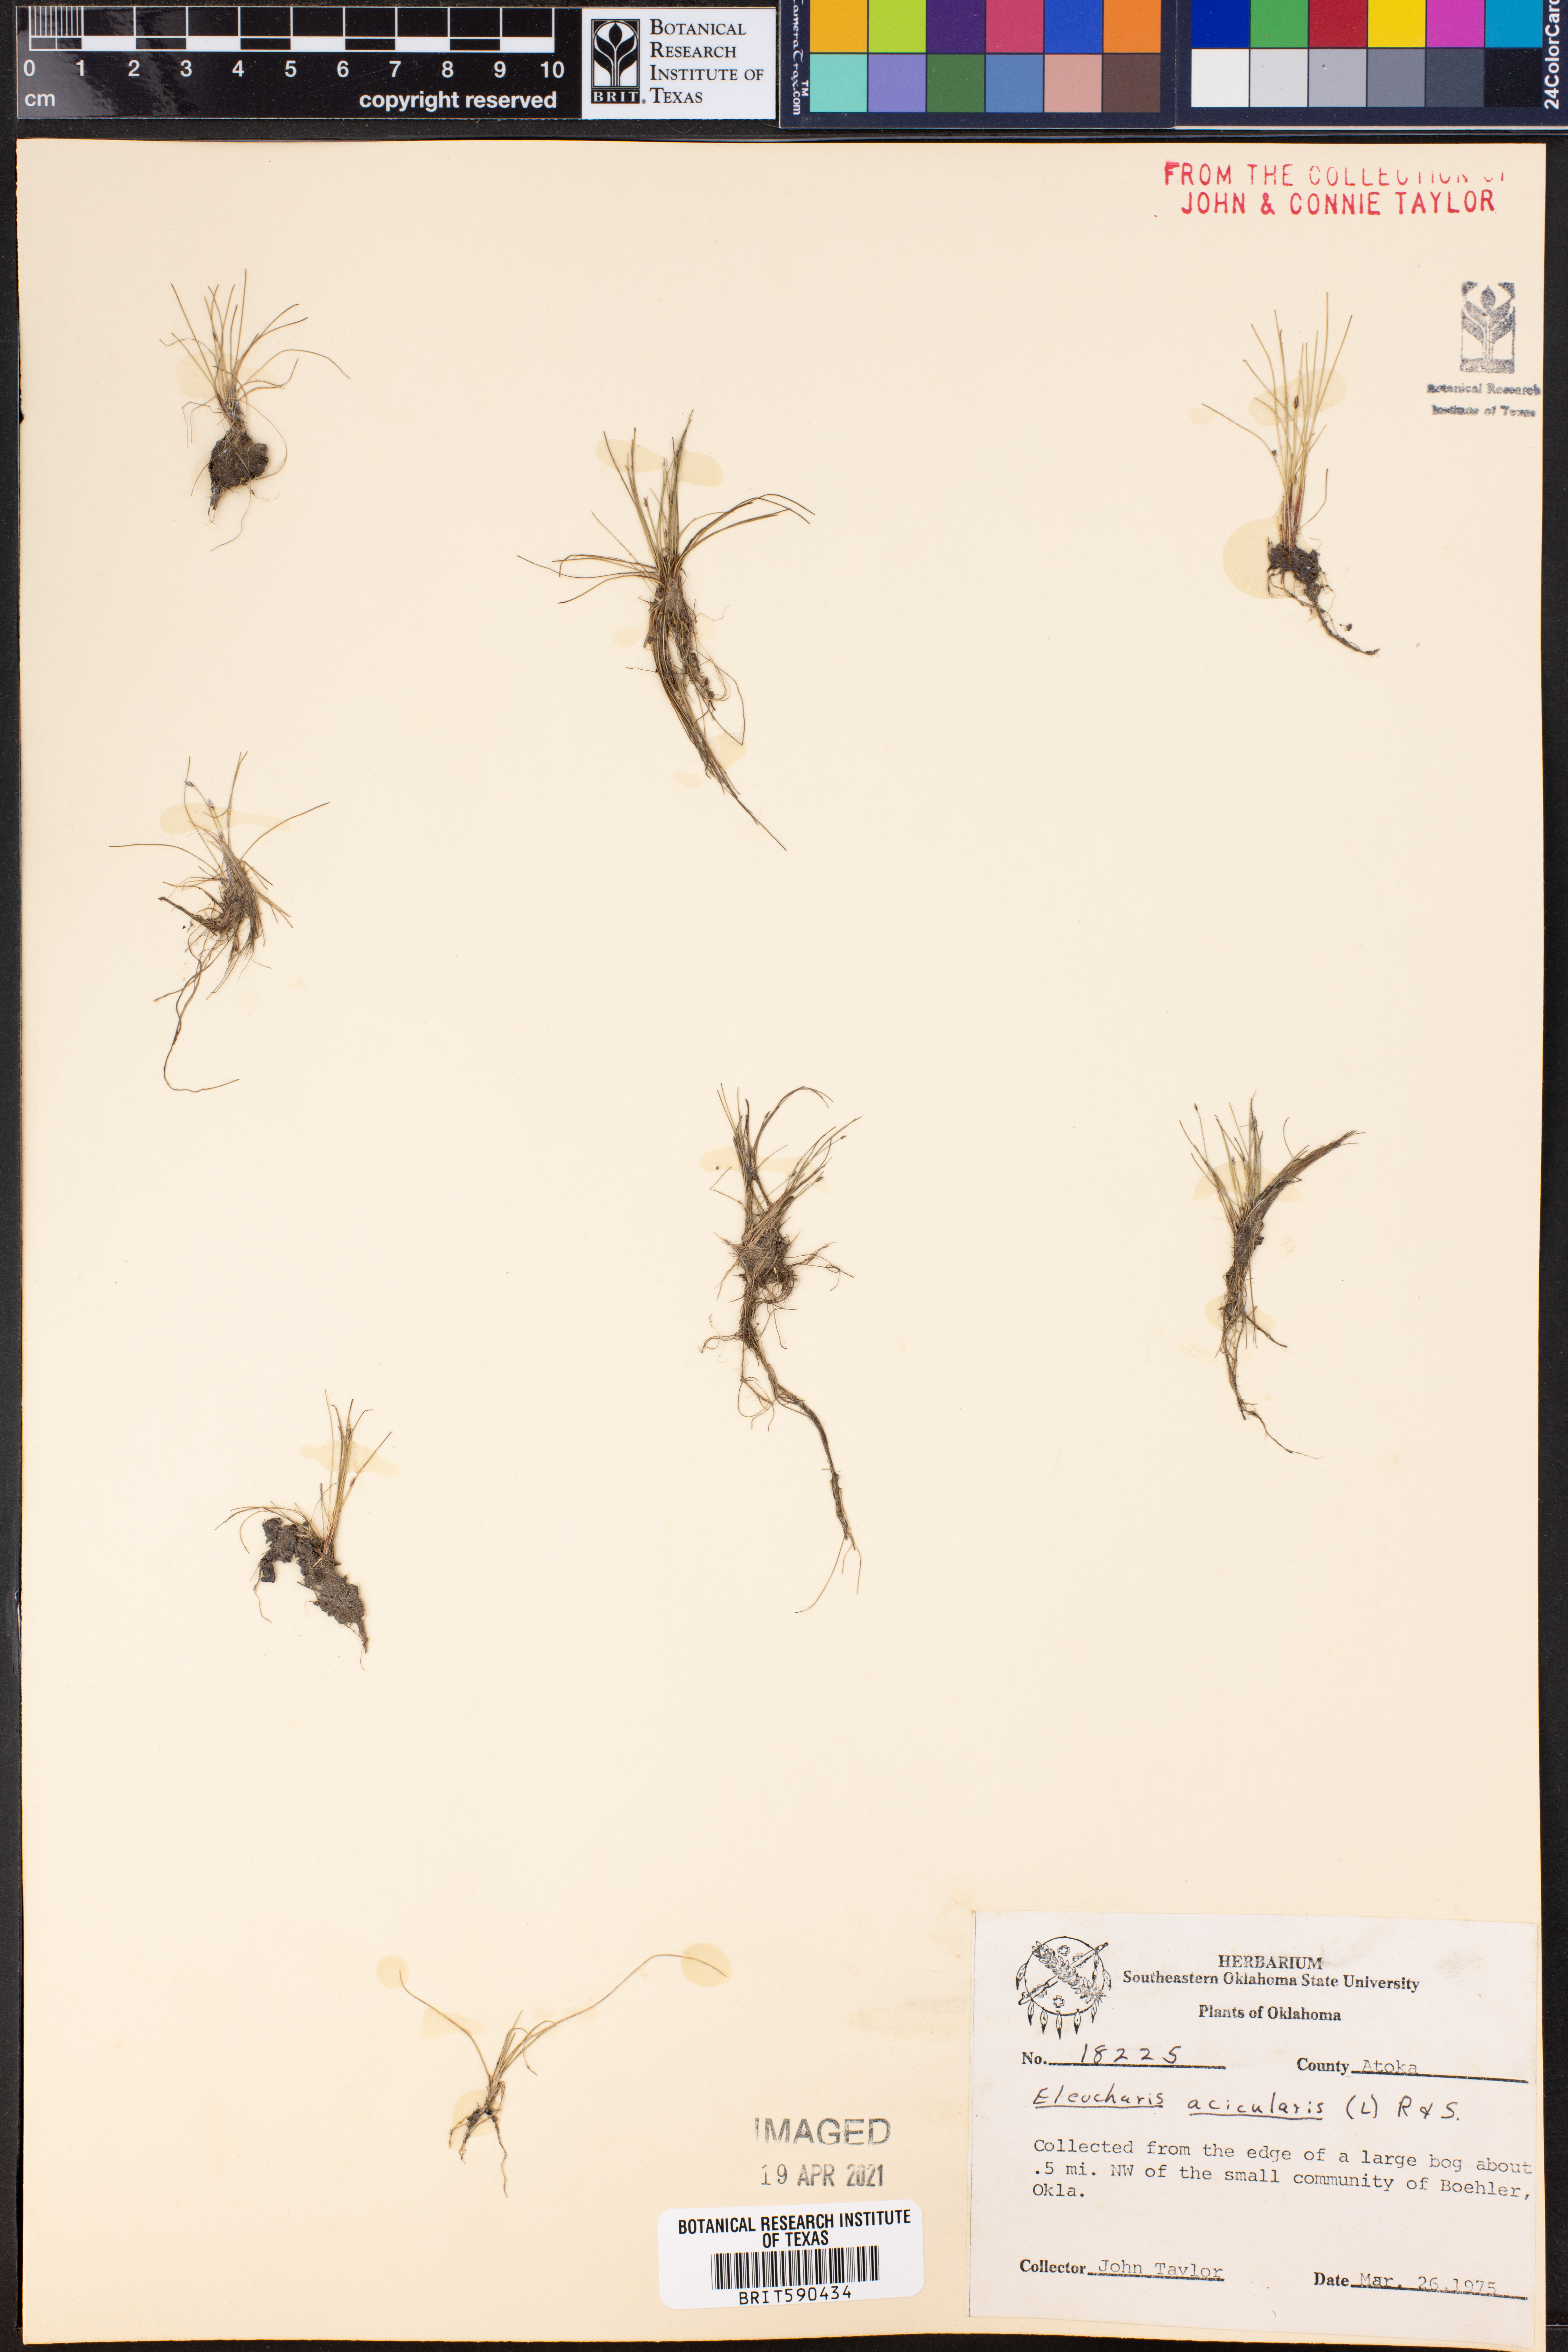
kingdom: Plantae
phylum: Tracheophyta
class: Liliopsida
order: Poales
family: Cyperaceae
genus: Eleocharis
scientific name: Eleocharis acicularis
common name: Needle spike-rush
